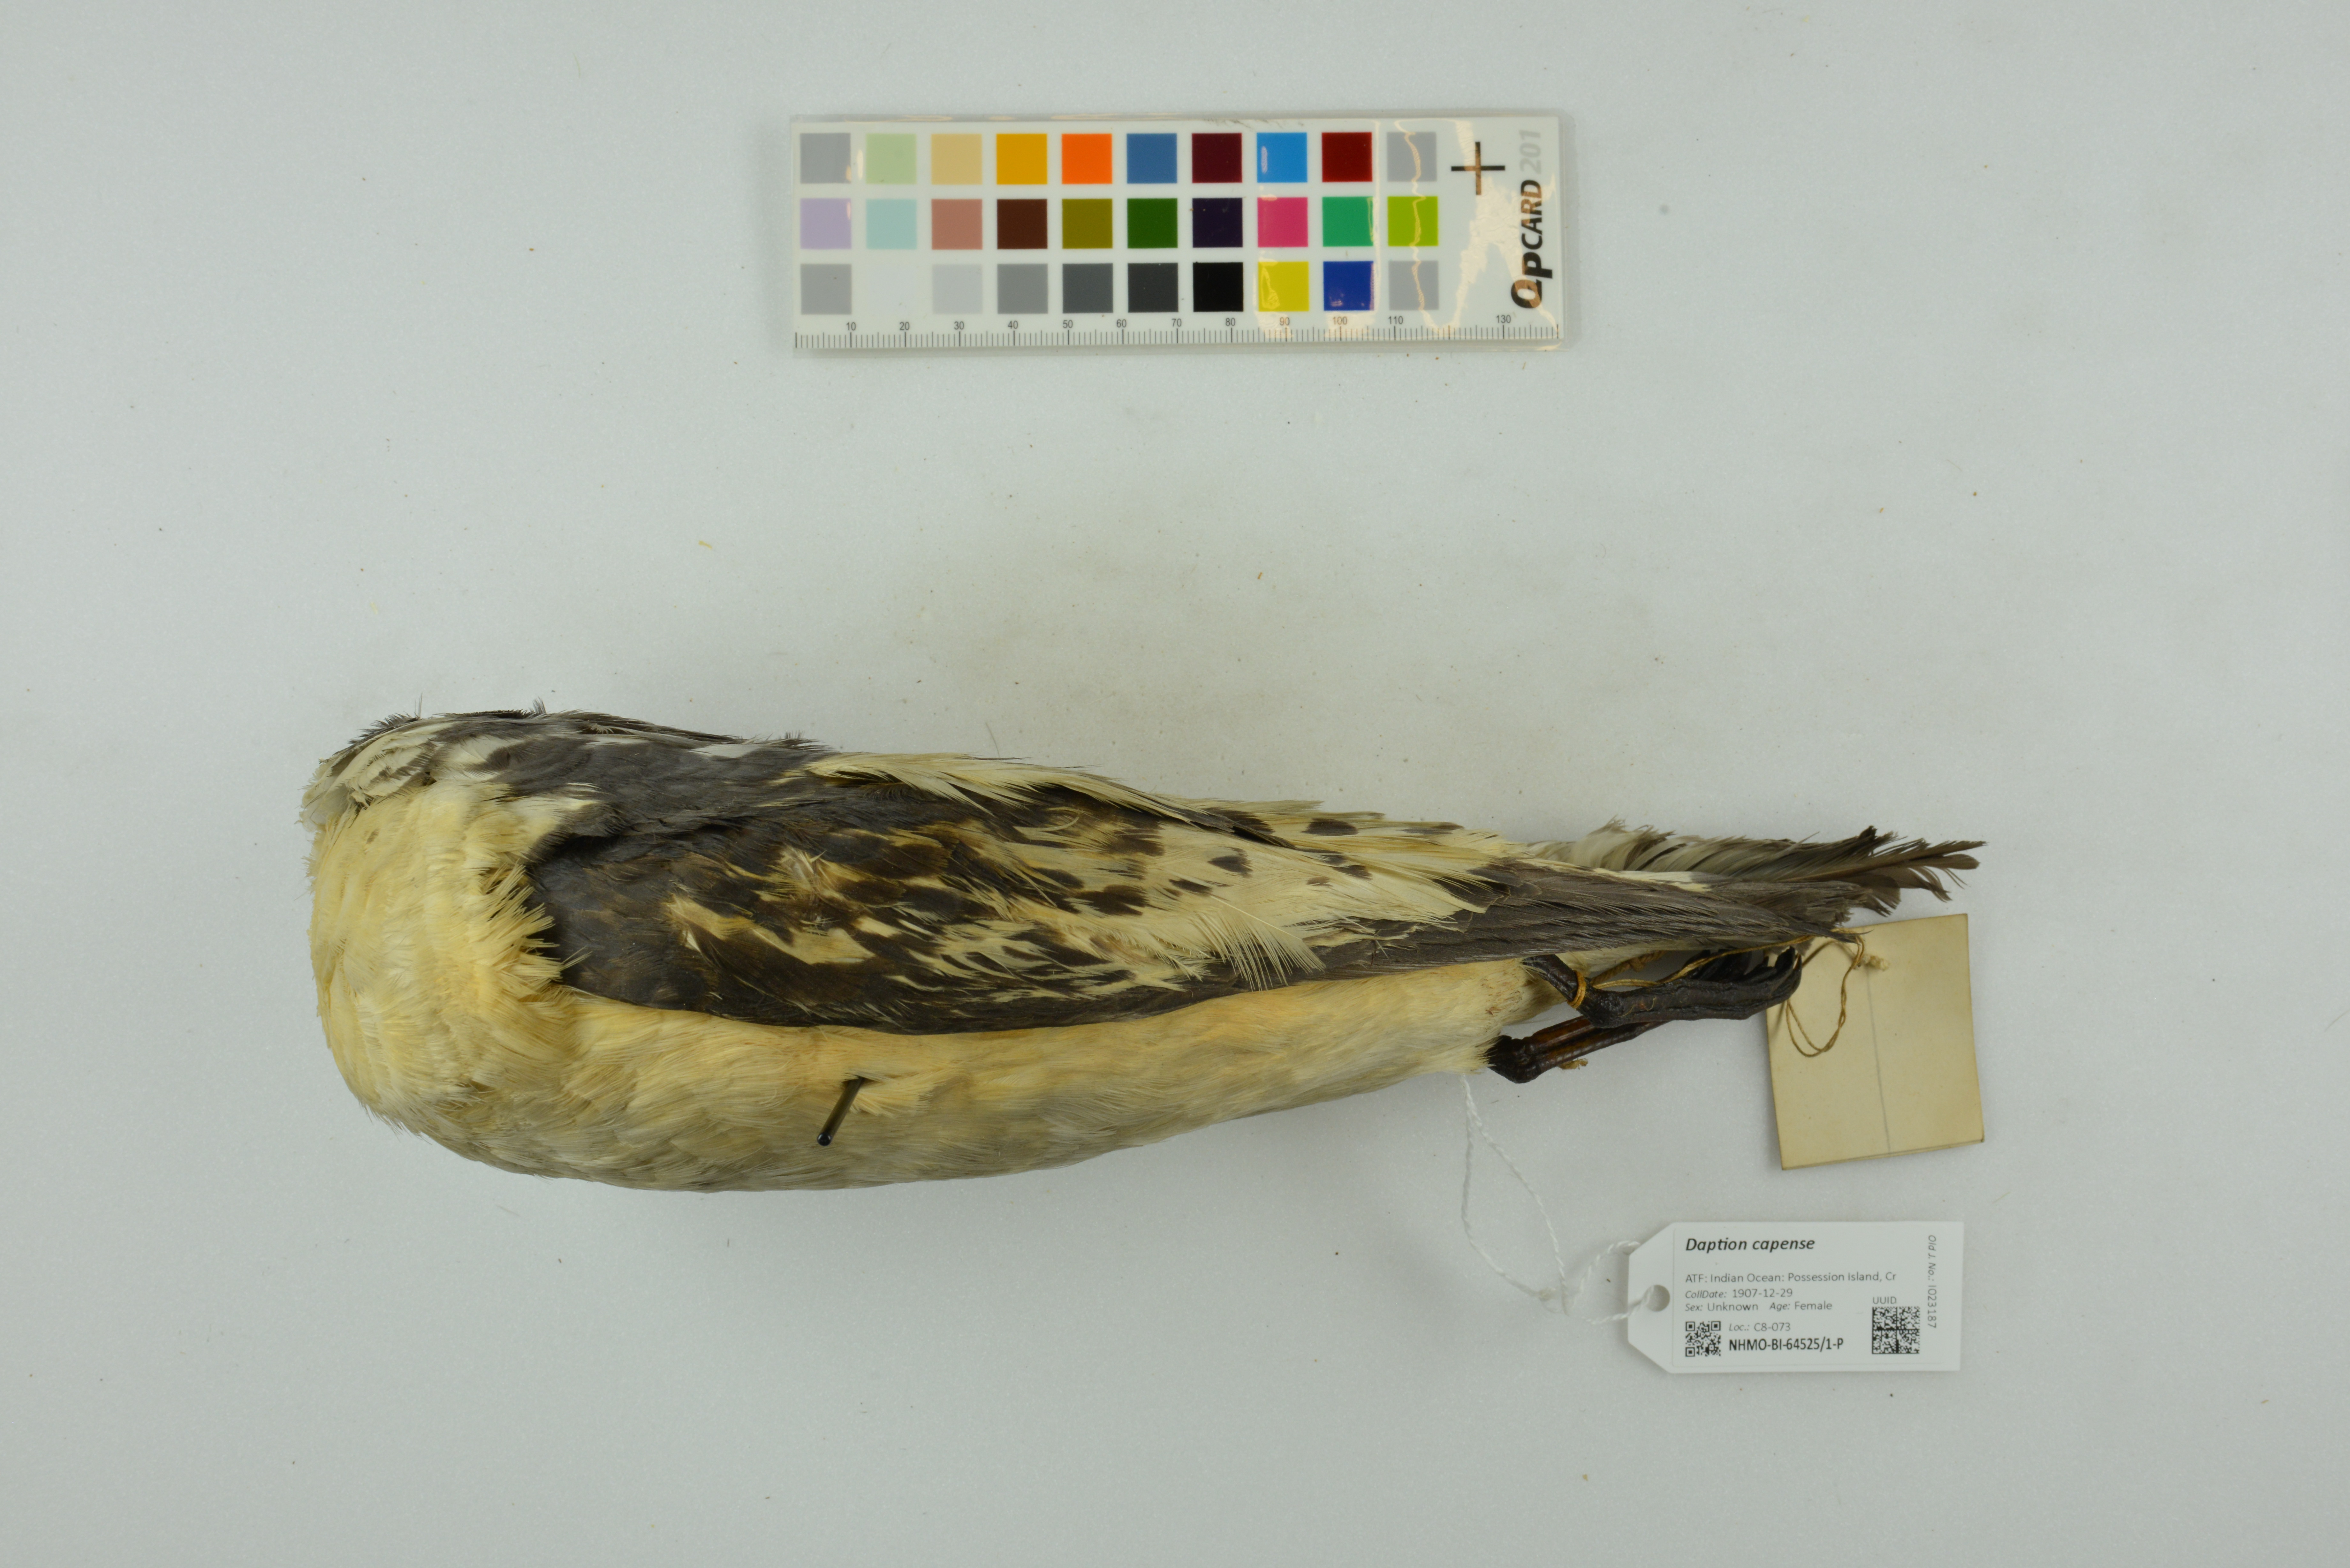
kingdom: Animalia
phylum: Chordata
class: Aves
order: Procellariiformes
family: Procellariidae
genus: Daption
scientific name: Daption capense
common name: Cape petrel
